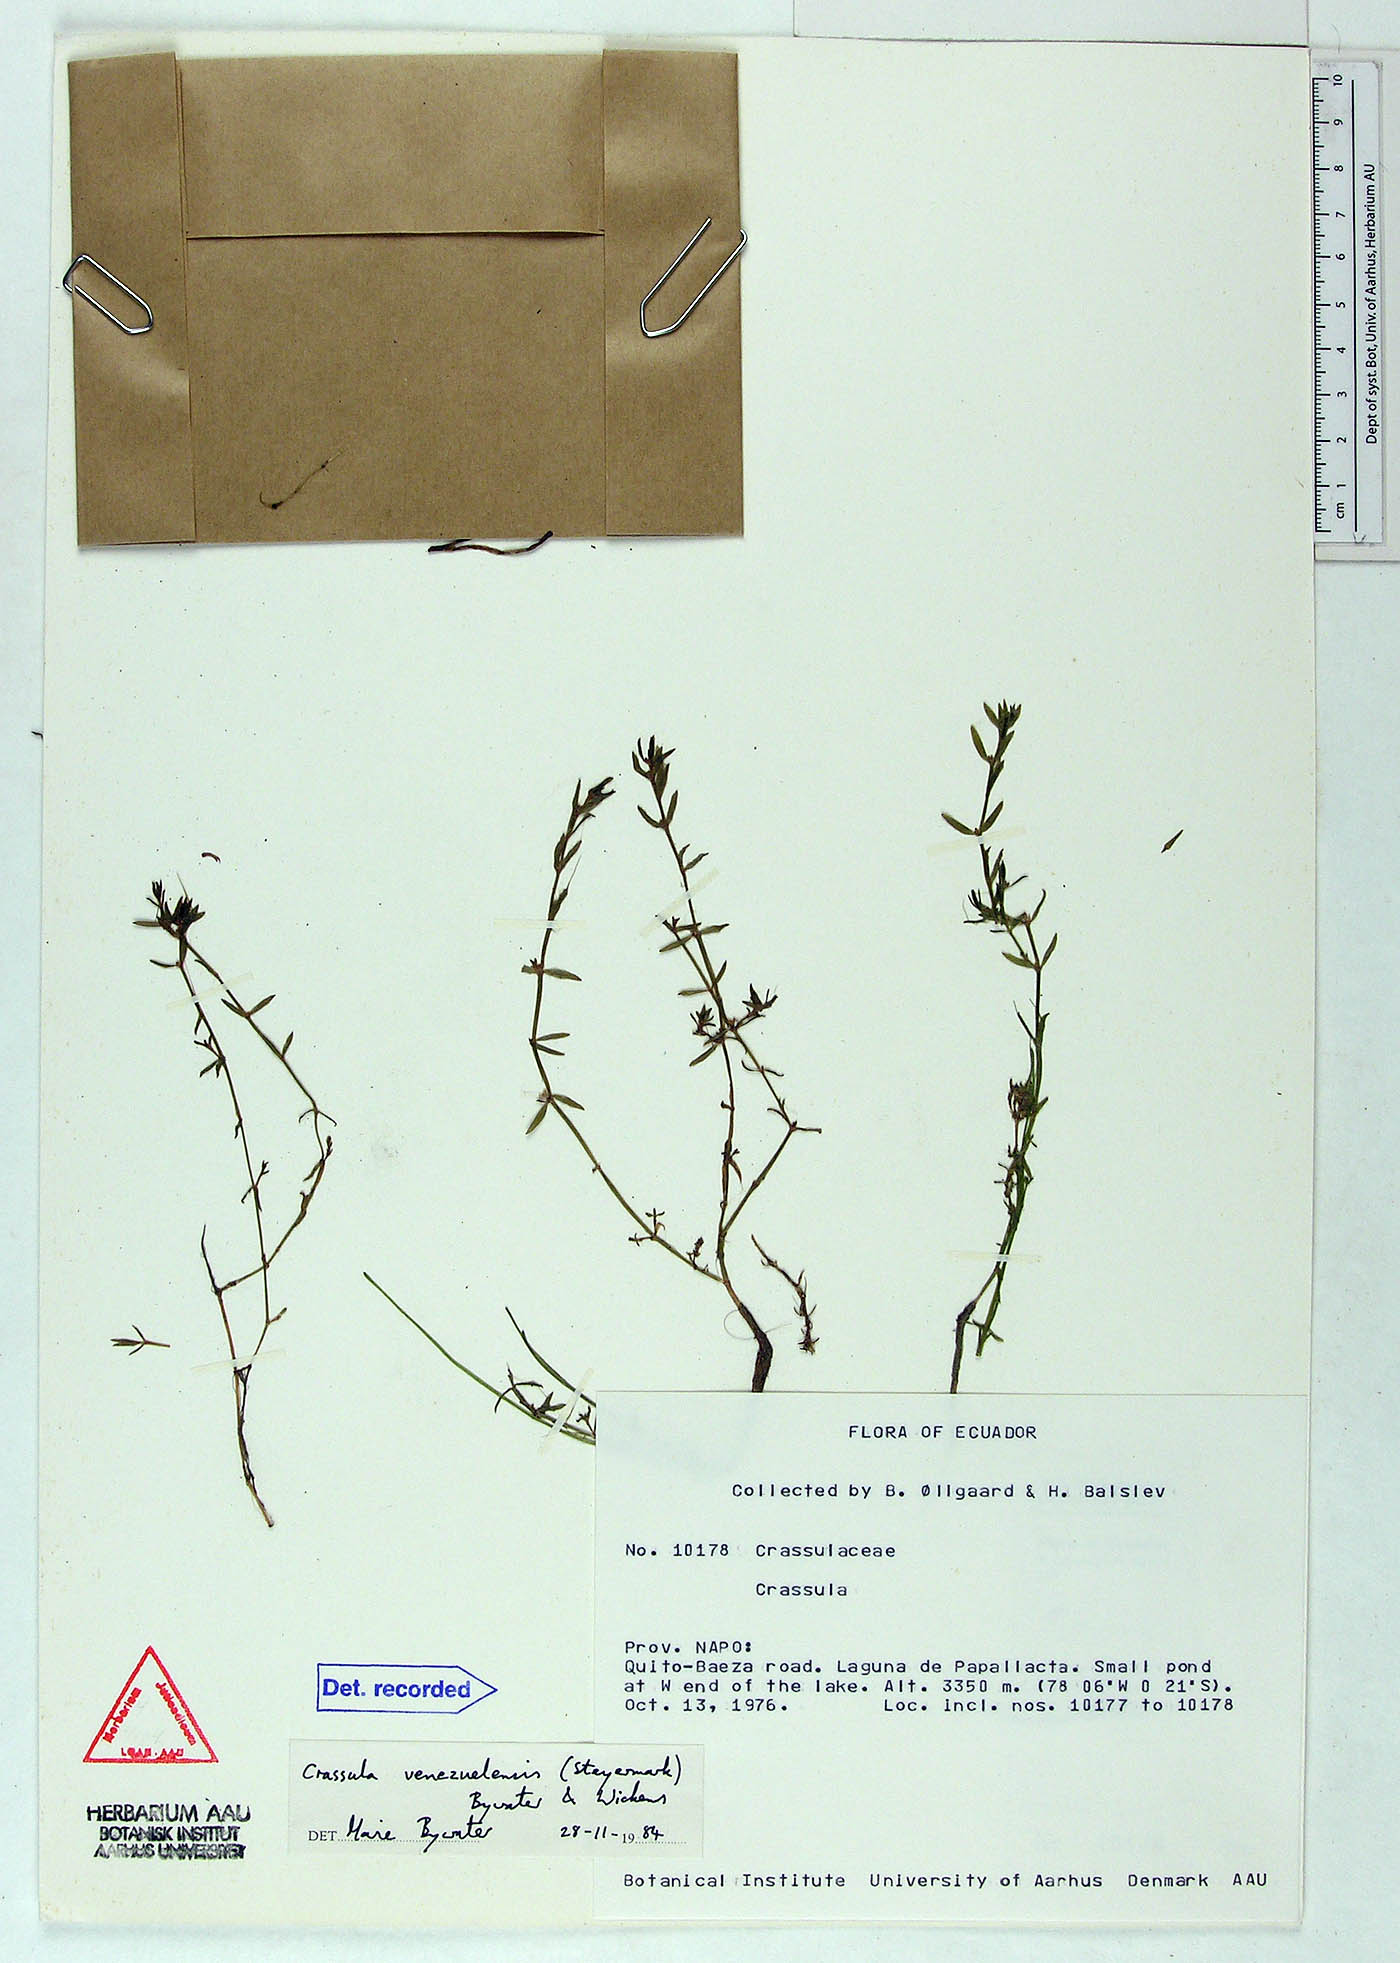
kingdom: Plantae
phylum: Tracheophyta
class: Magnoliopsida
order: Saxifragales
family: Crassulaceae
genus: Crassula
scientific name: Crassula venezuelensis
